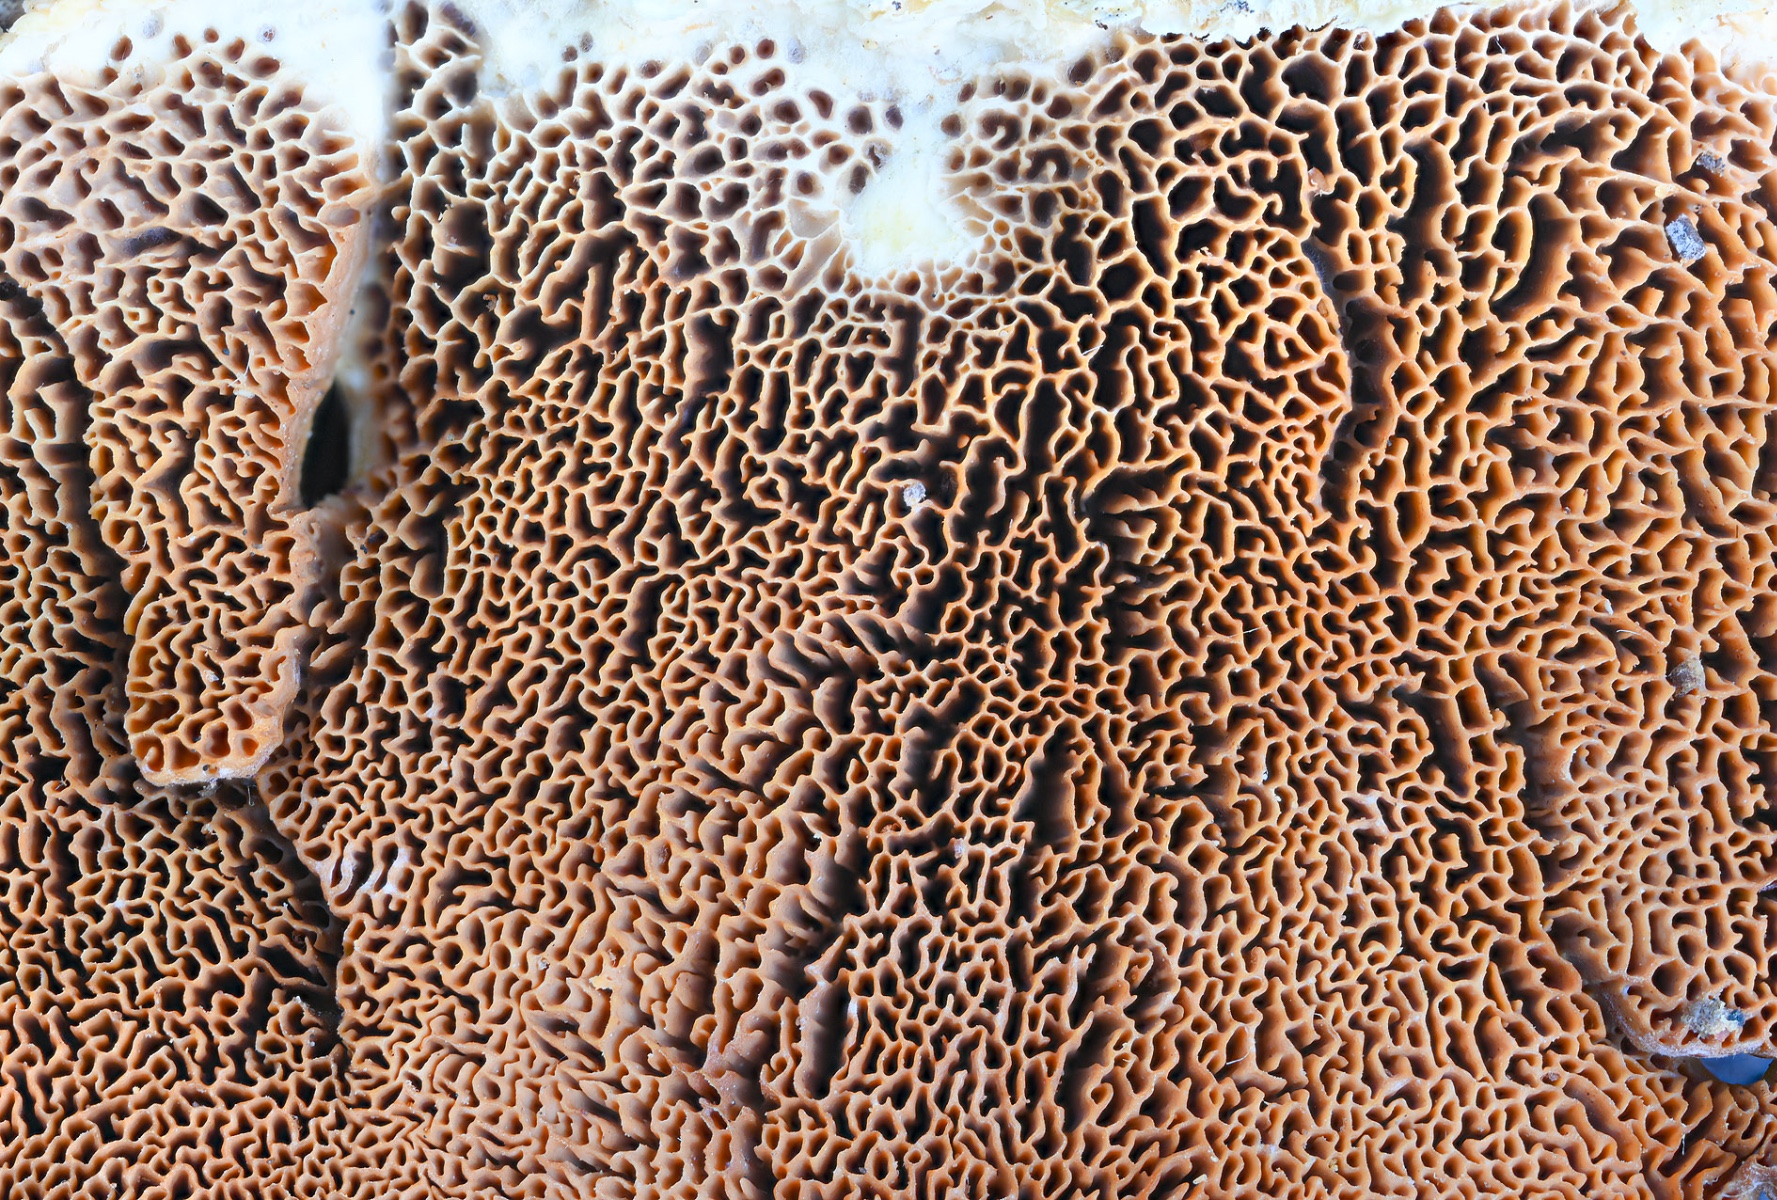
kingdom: Fungi
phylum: Basidiomycota
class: Agaricomycetes
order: Polyporales
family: Irpicaceae
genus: Trametopsis
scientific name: Trametopsis cervina
